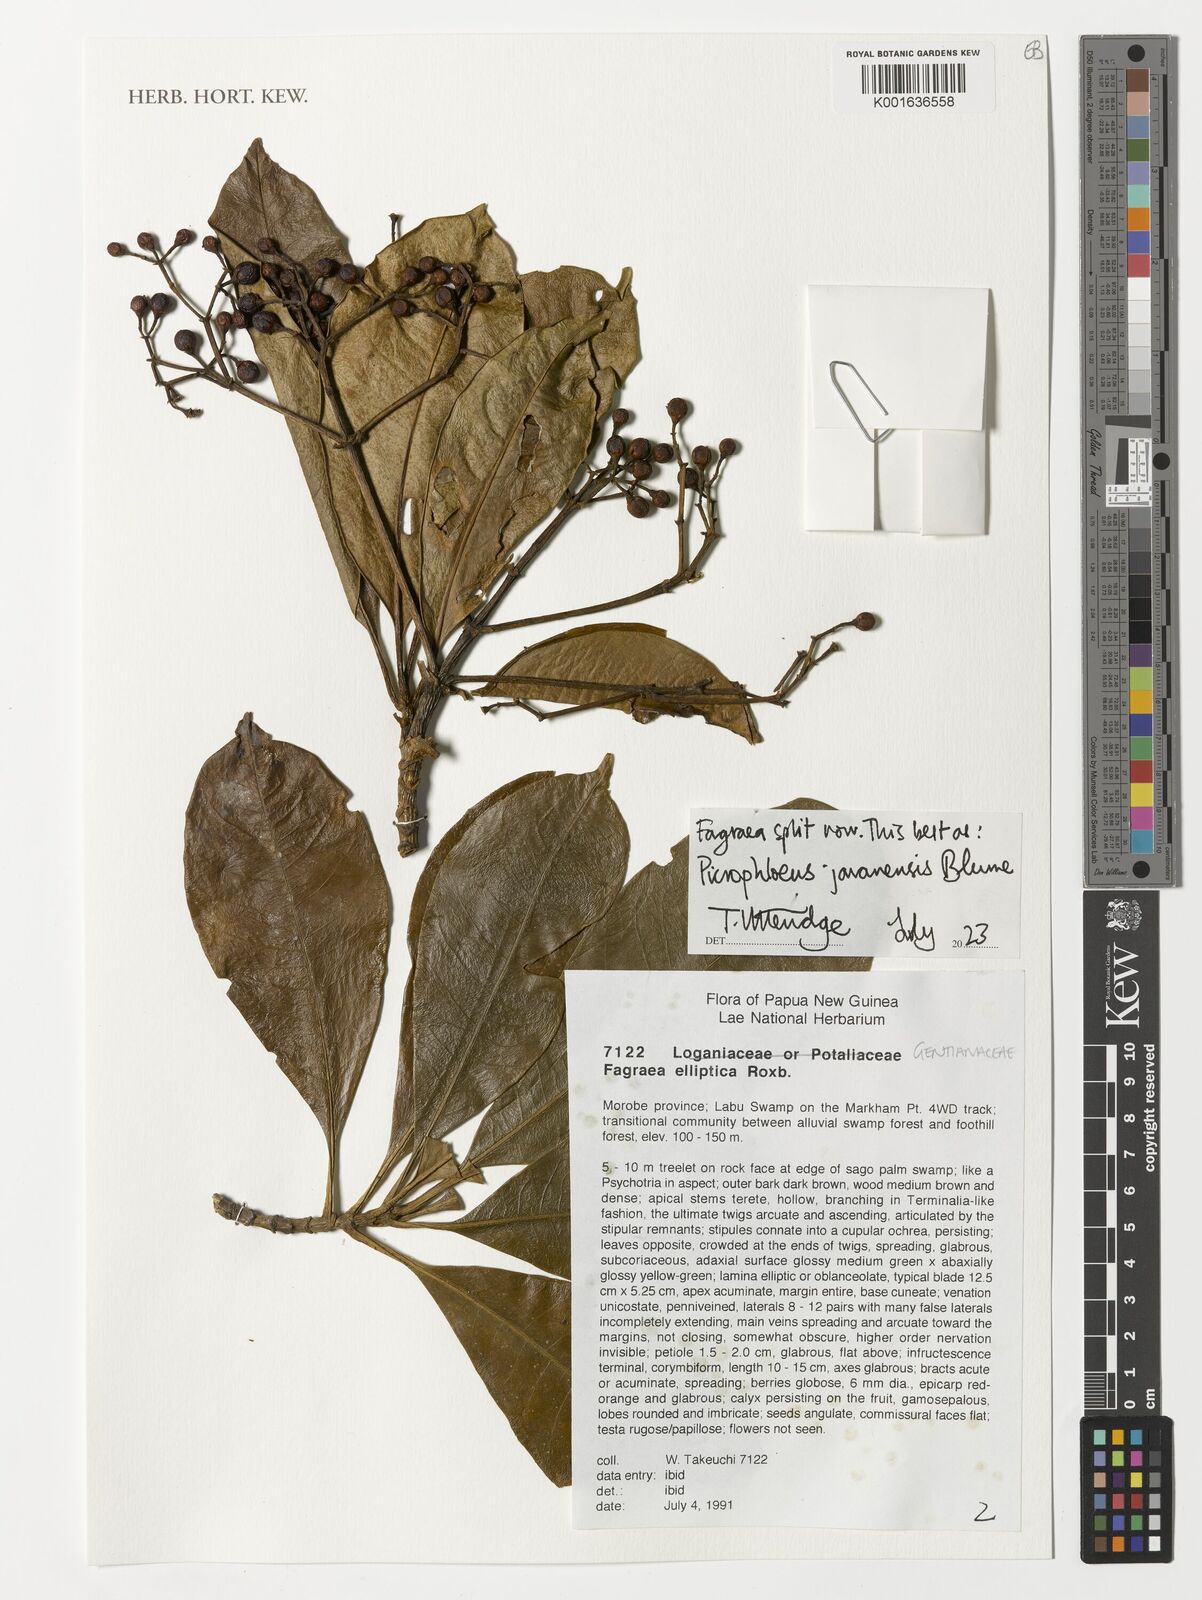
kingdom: Plantae
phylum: Tracheophyta
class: Magnoliopsida
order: Gentianales
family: Gentianaceae
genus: Picrophloeus
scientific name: Picrophloeus javanensis
